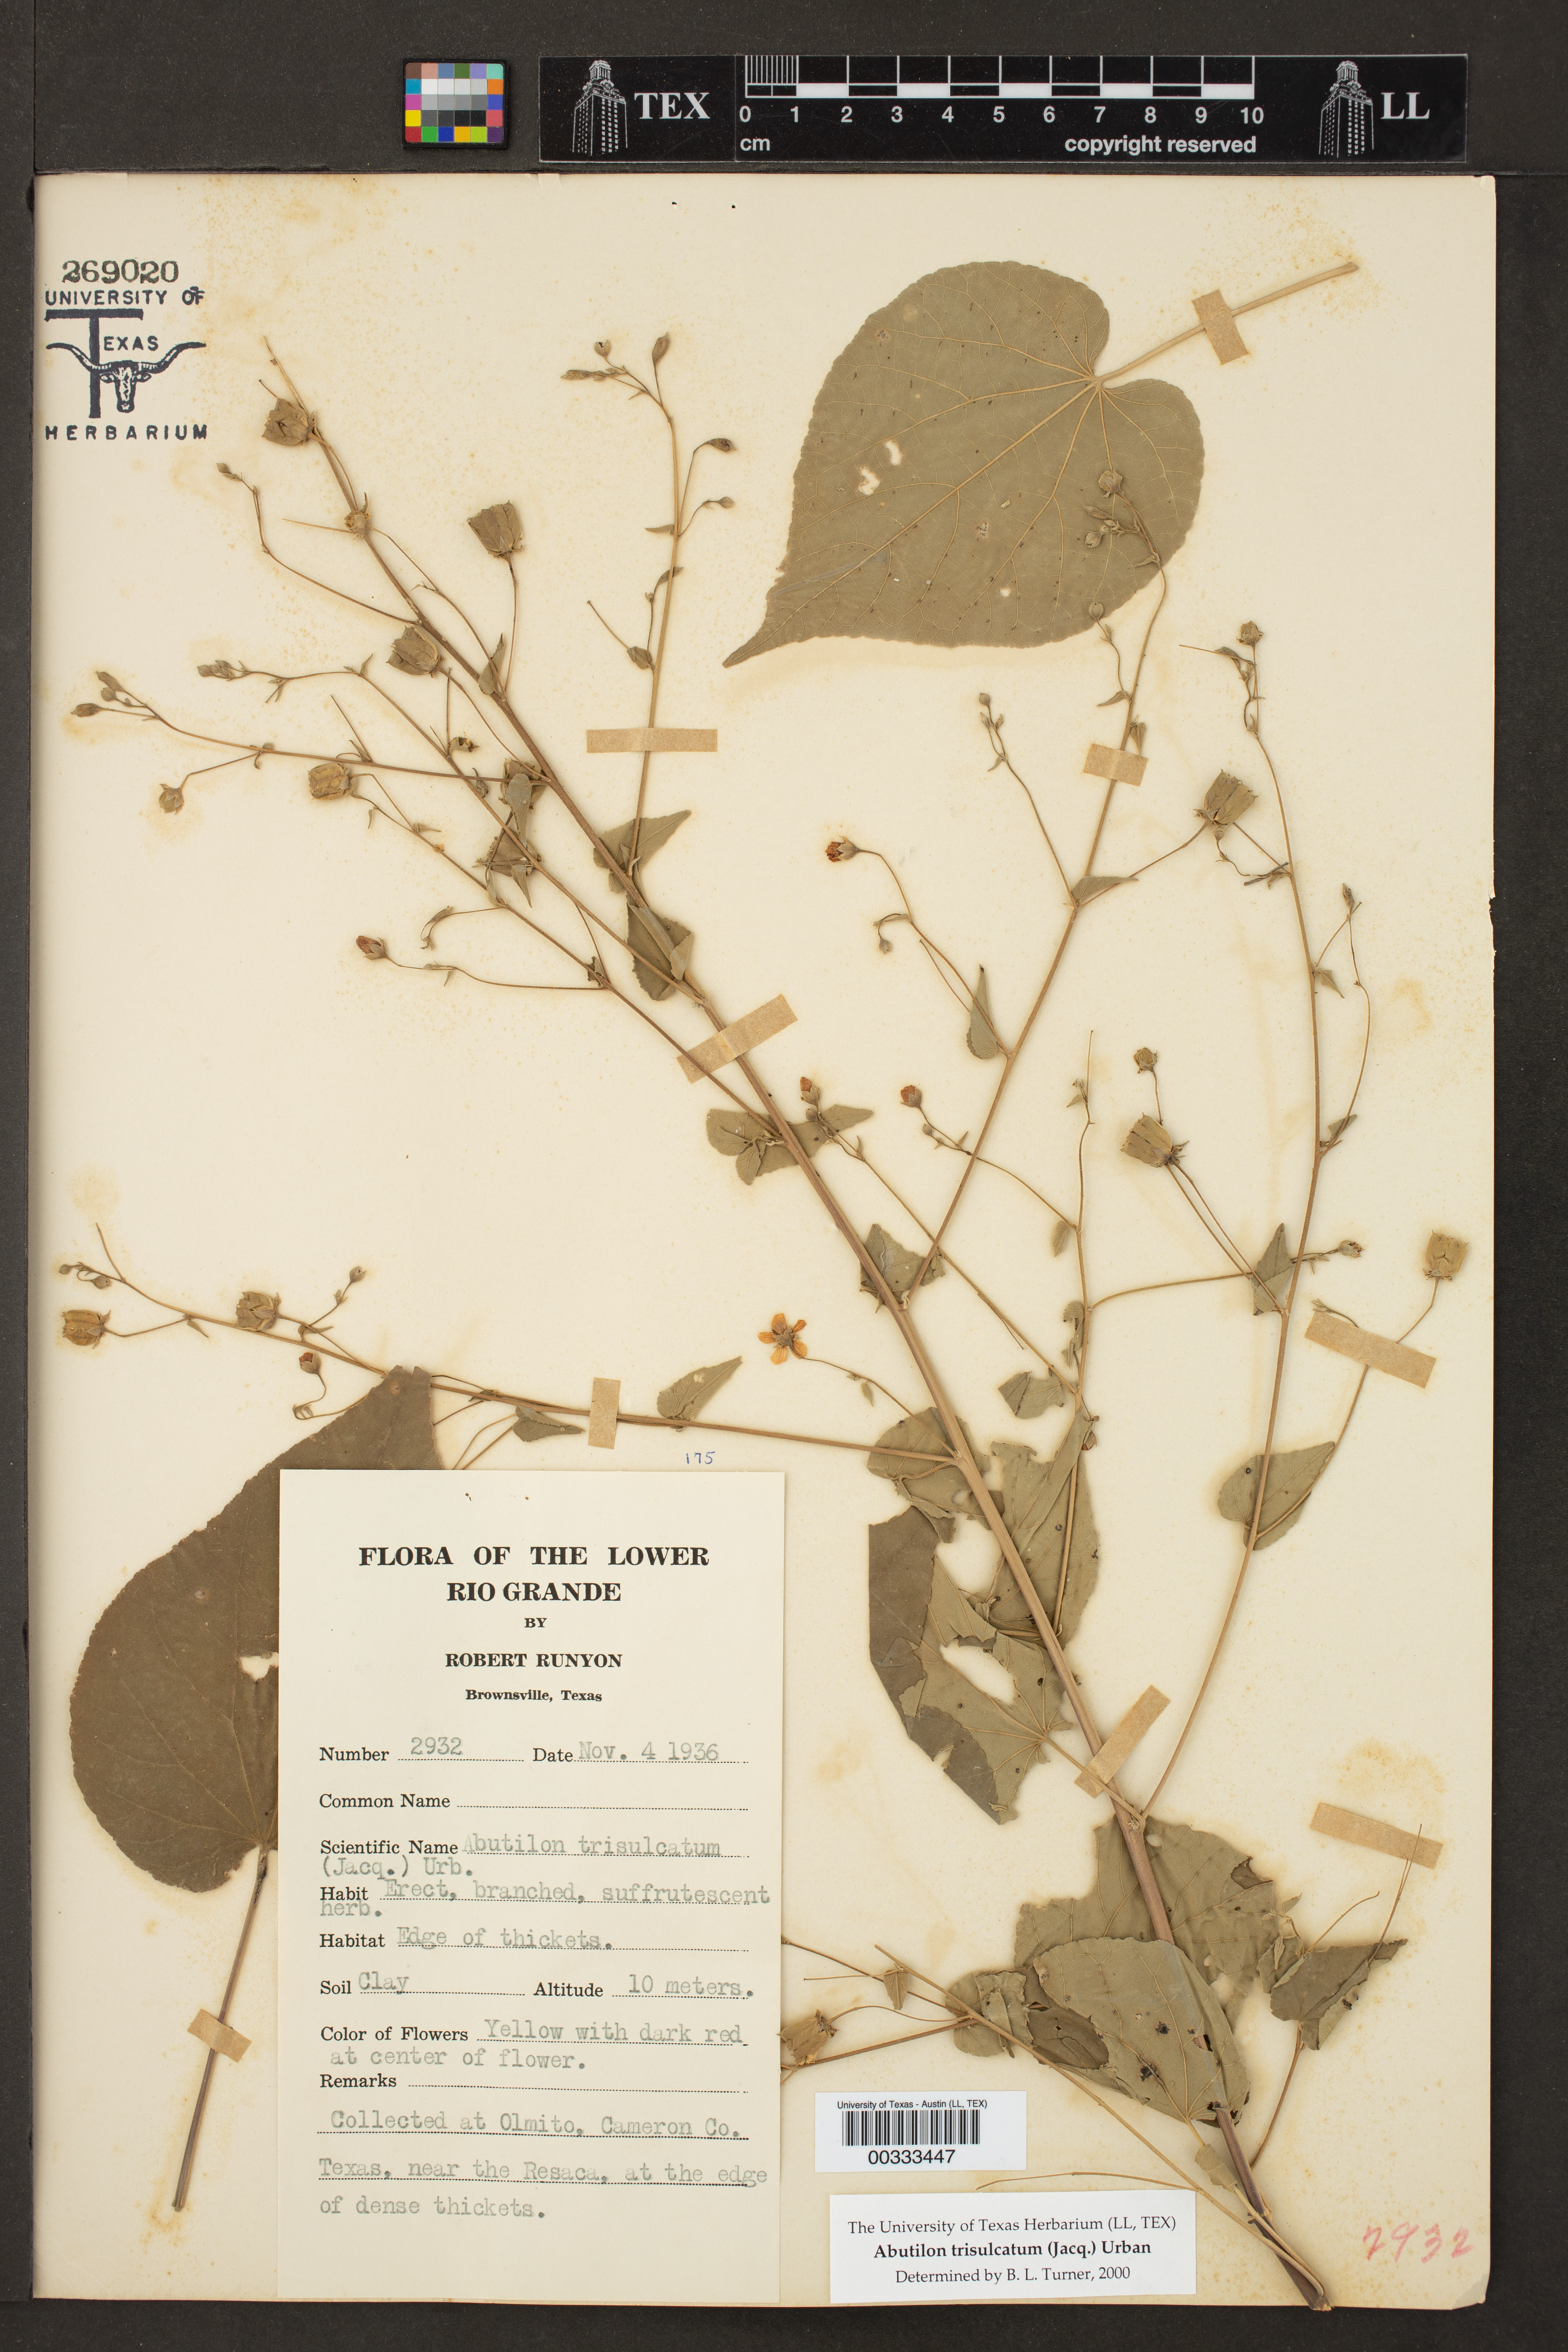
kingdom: Plantae
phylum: Tracheophyta
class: Magnoliopsida
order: Malvales
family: Malvaceae
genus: Abutilon
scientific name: Abutilon trisulcatum
